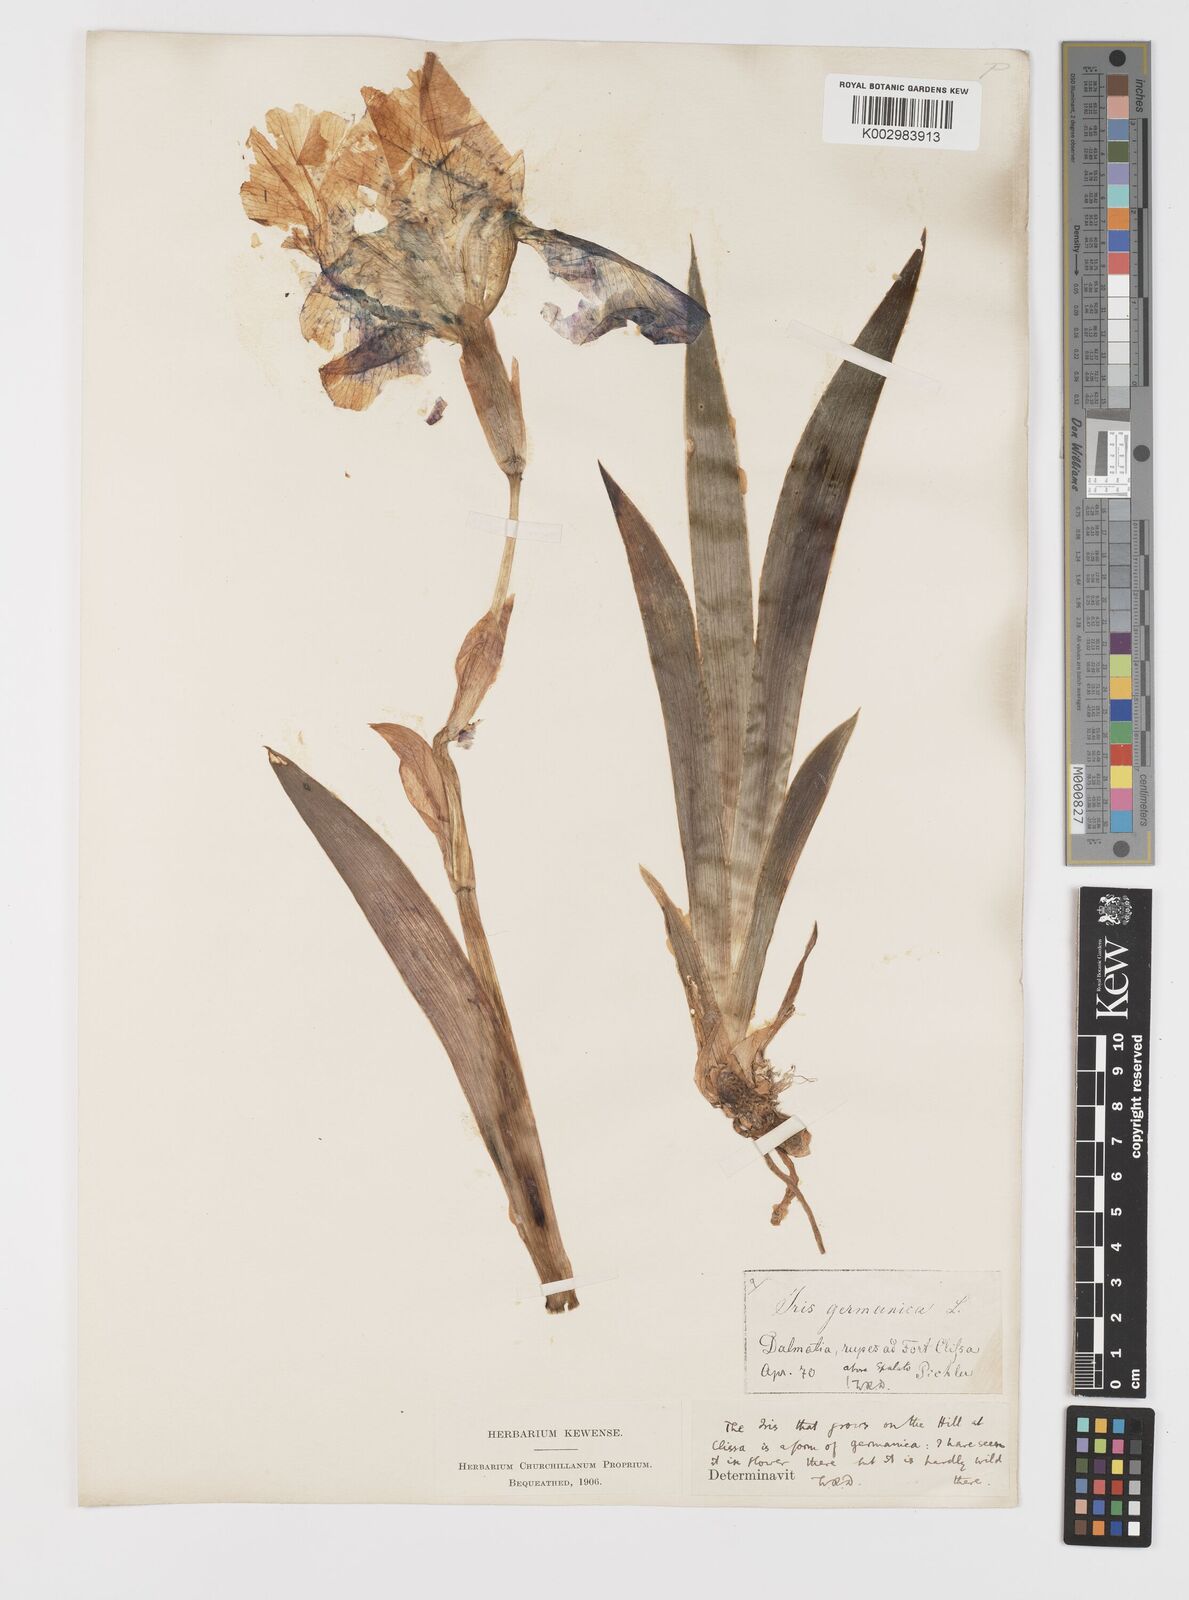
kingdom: Plantae
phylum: Tracheophyta
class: Liliopsida
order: Asparagales
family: Iridaceae
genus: Iris
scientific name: Iris germanica
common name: German iris
